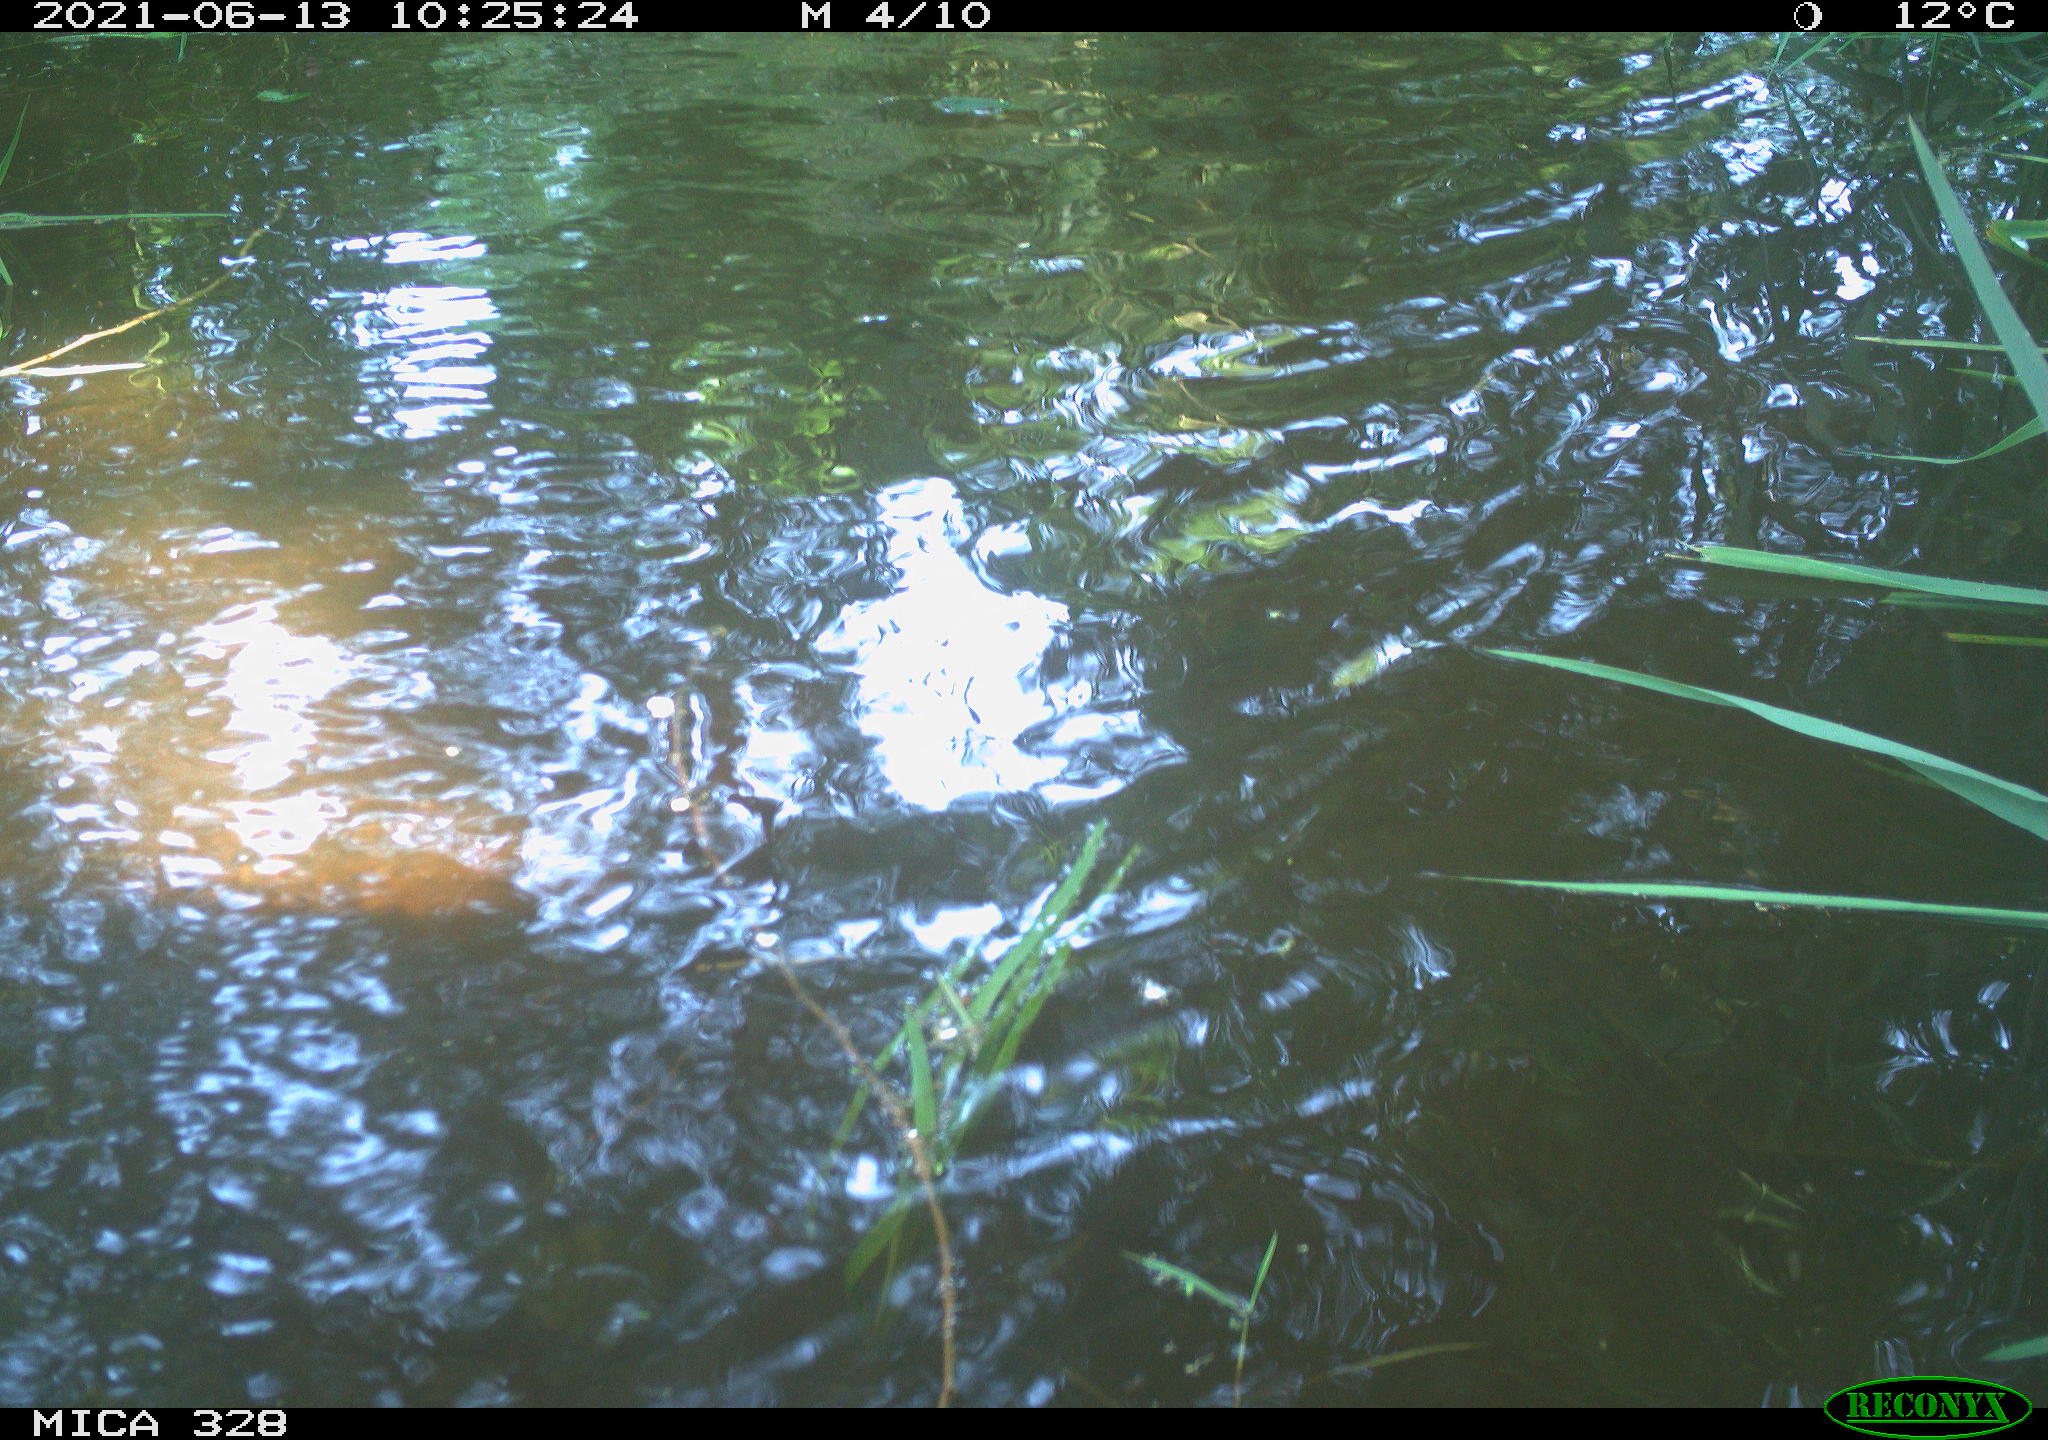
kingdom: Animalia
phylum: Chordata
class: Aves
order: Anseriformes
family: Anatidae
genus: Aix
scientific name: Aix galericulata
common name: Mandarin duck
